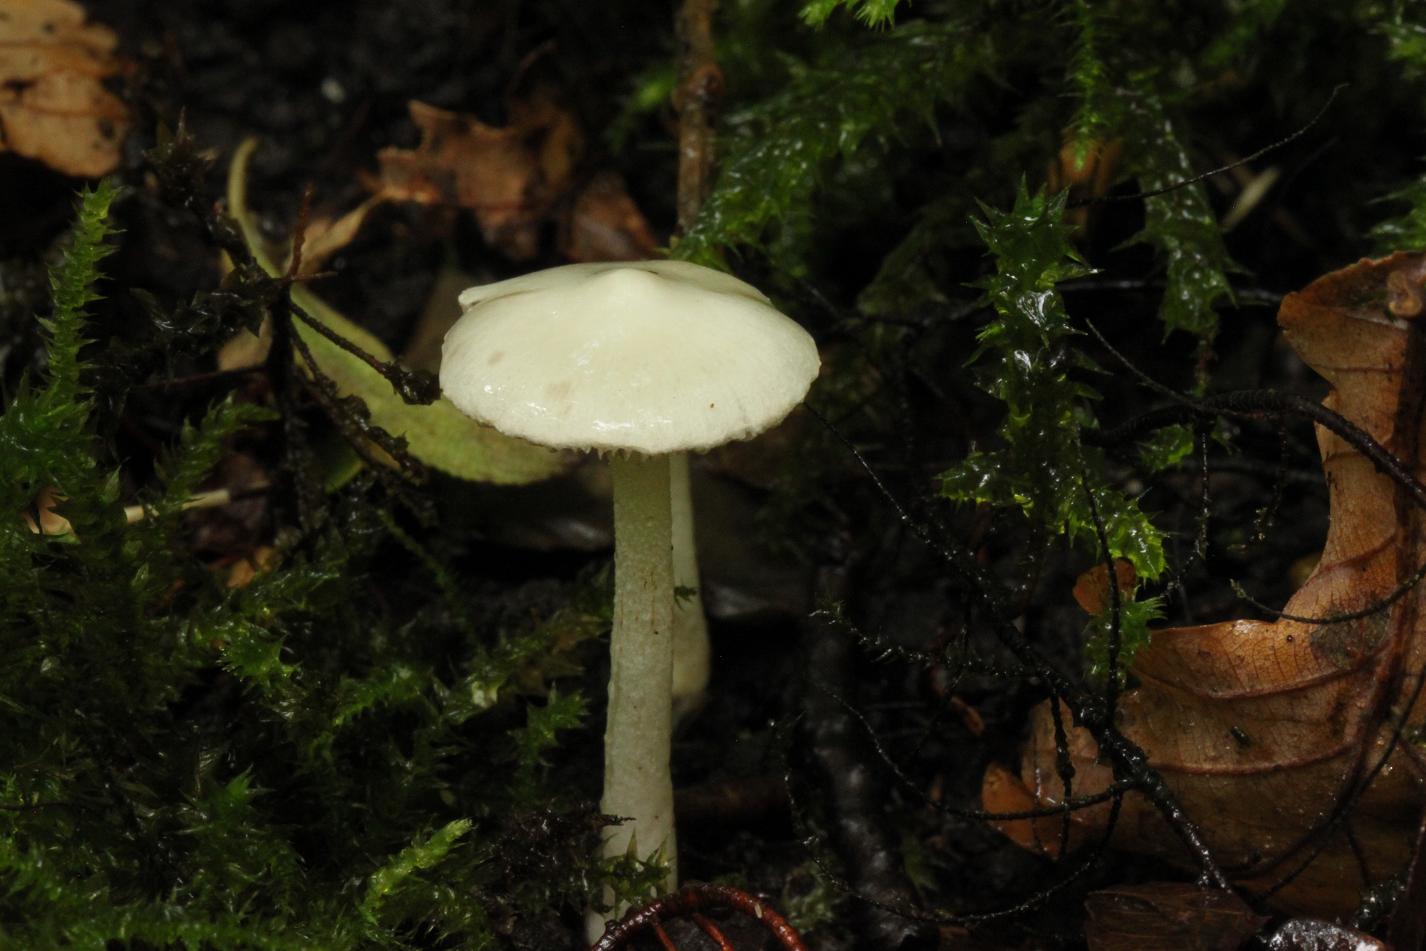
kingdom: Fungi
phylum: Basidiomycota
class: Agaricomycetes
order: Agaricales
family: Inocybaceae
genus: Inocybe
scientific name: Inocybe
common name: almindelig trævlhat
